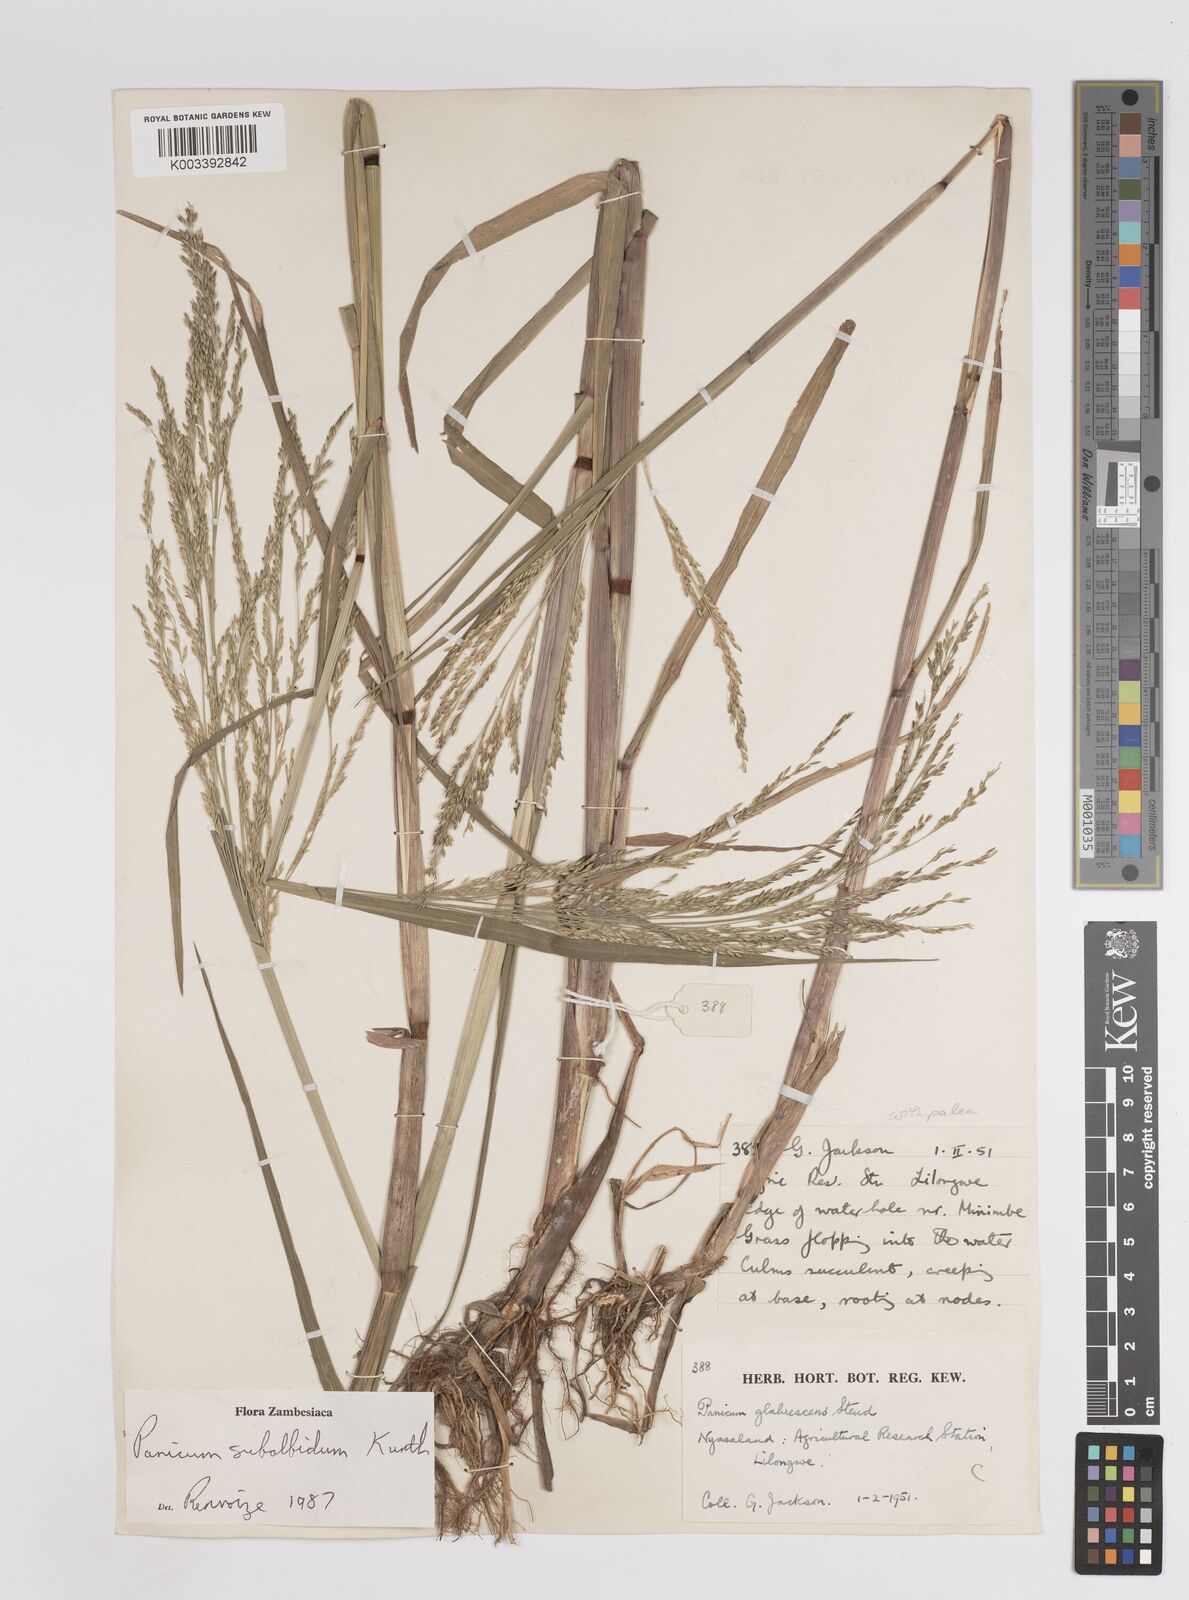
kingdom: Plantae
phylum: Tracheophyta
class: Liliopsida
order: Poales
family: Poaceae
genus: Panicum
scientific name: Panicum subalbidum
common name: Elbow buffalo grass
